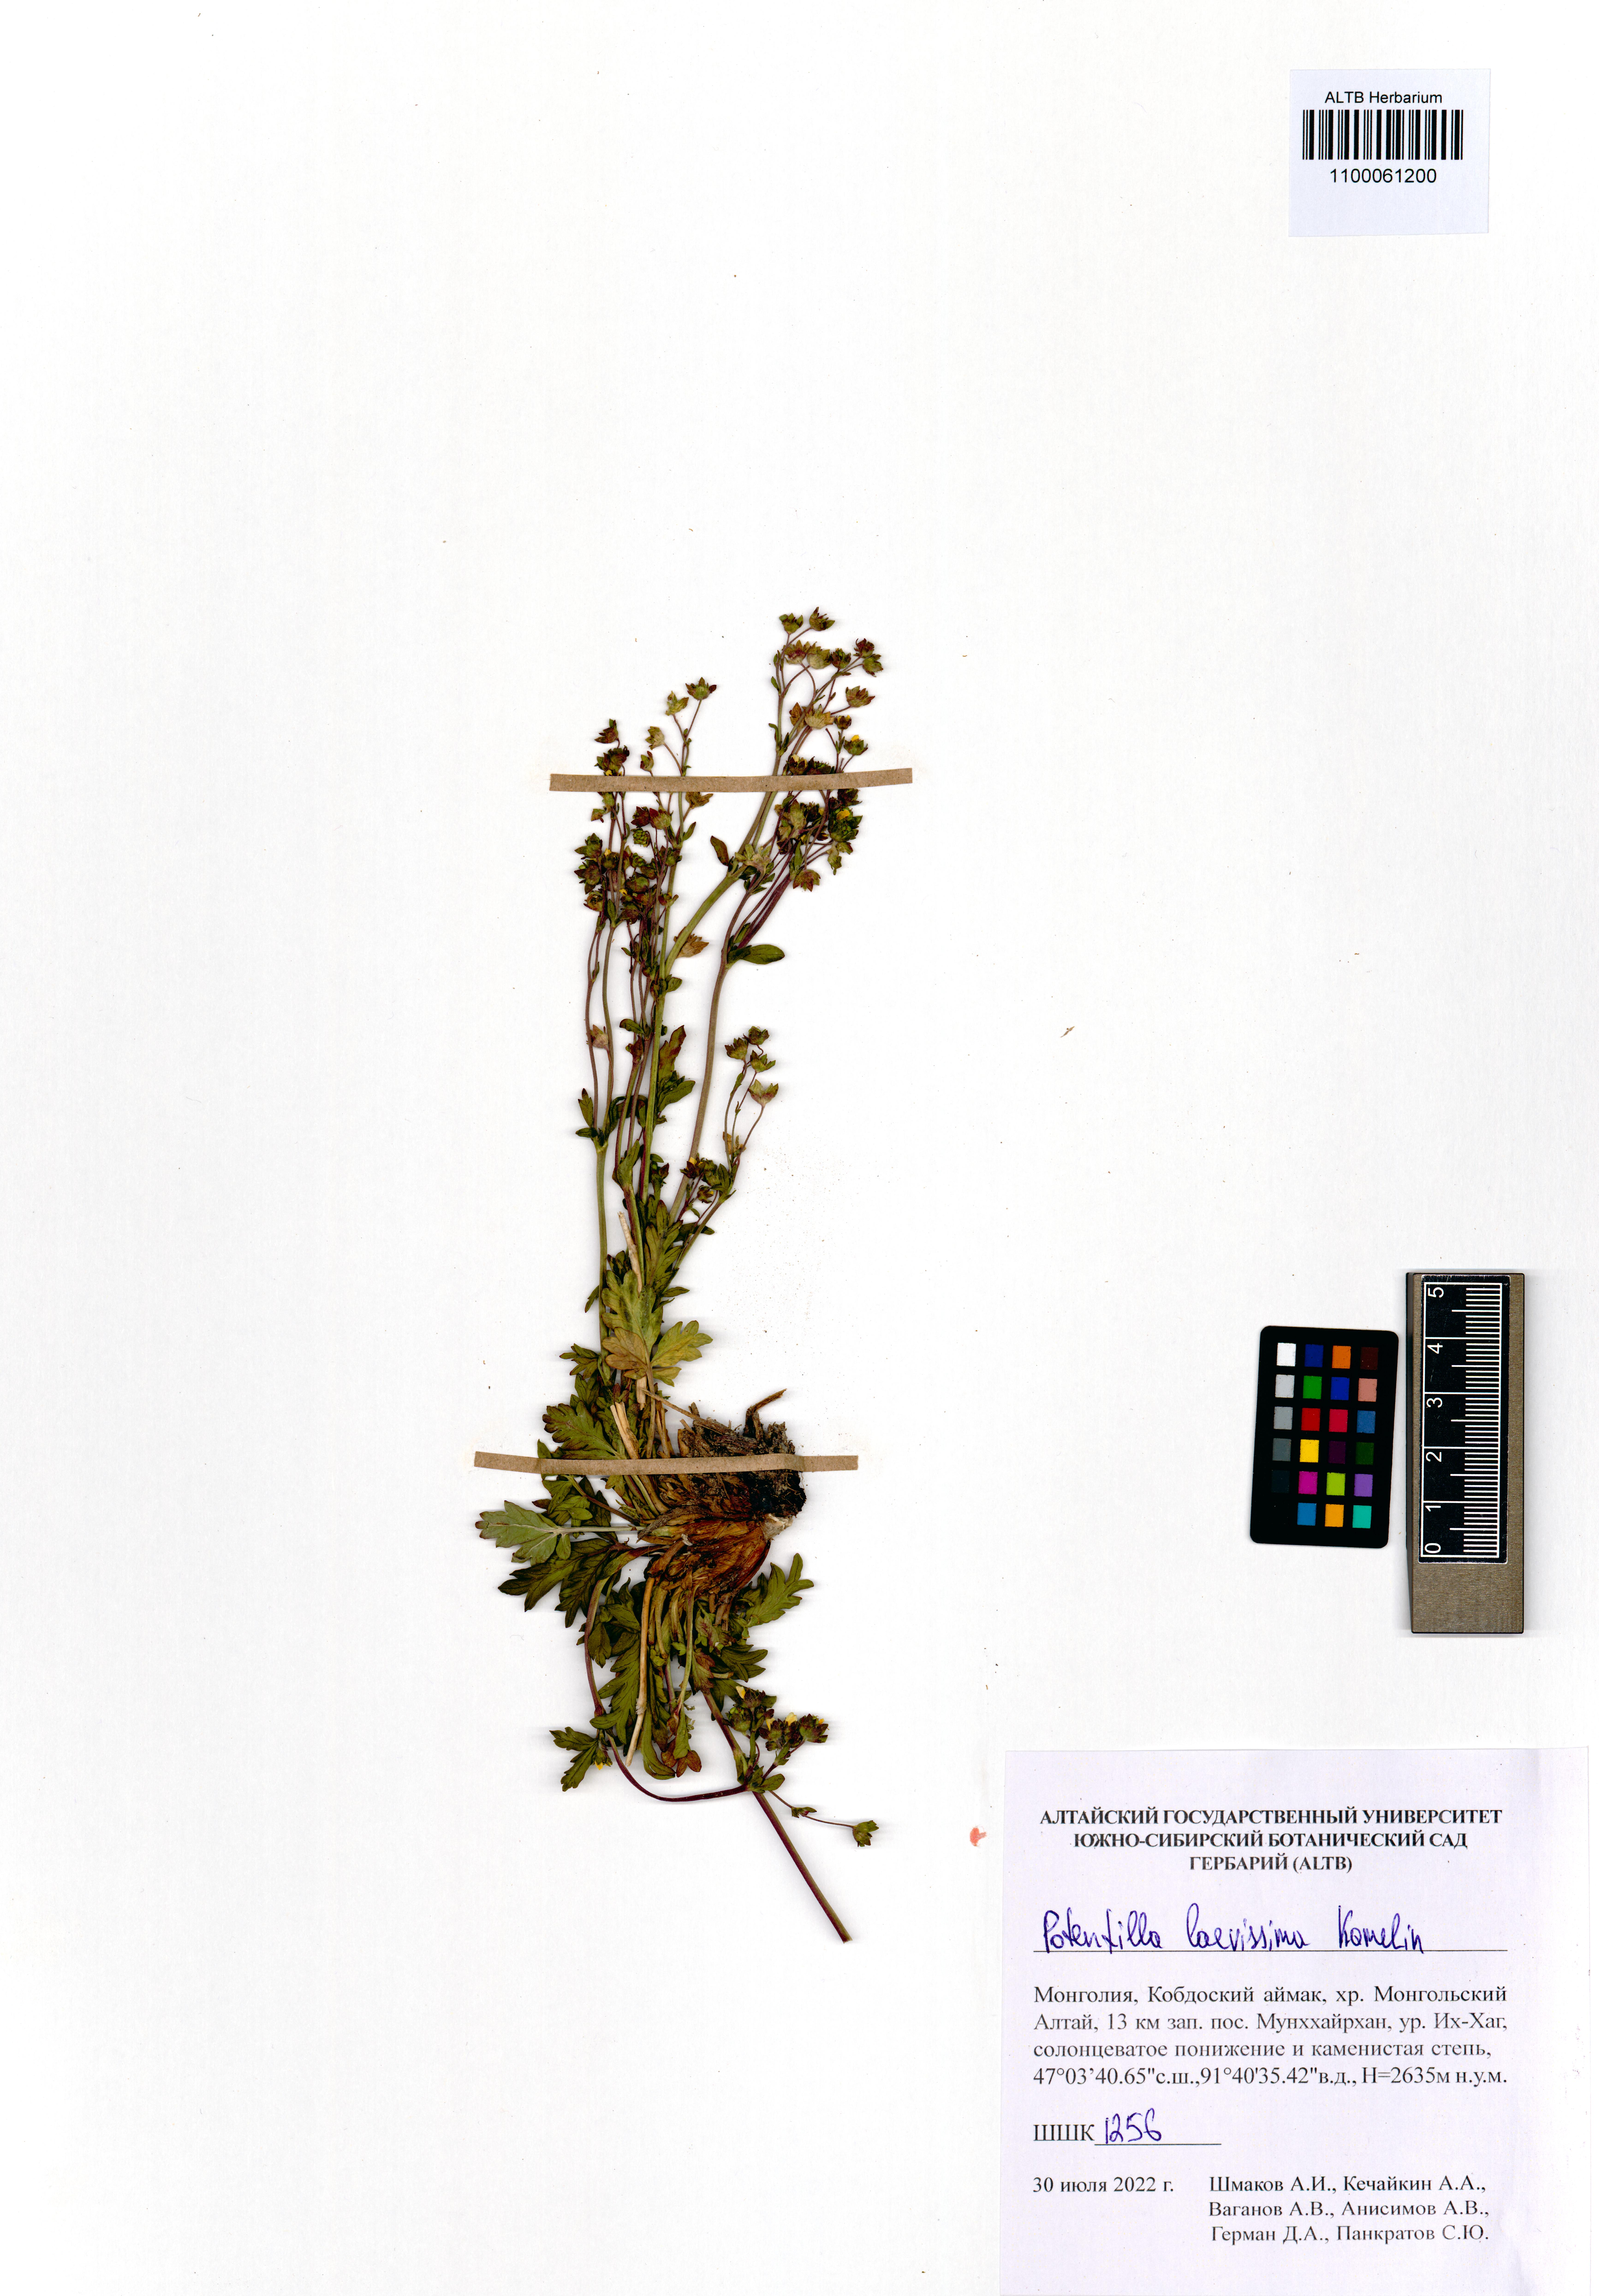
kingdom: Plantae
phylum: Tracheophyta
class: Magnoliopsida
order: Rosales
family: Rosaceae
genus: Potentilla
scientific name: Potentilla laevissima
